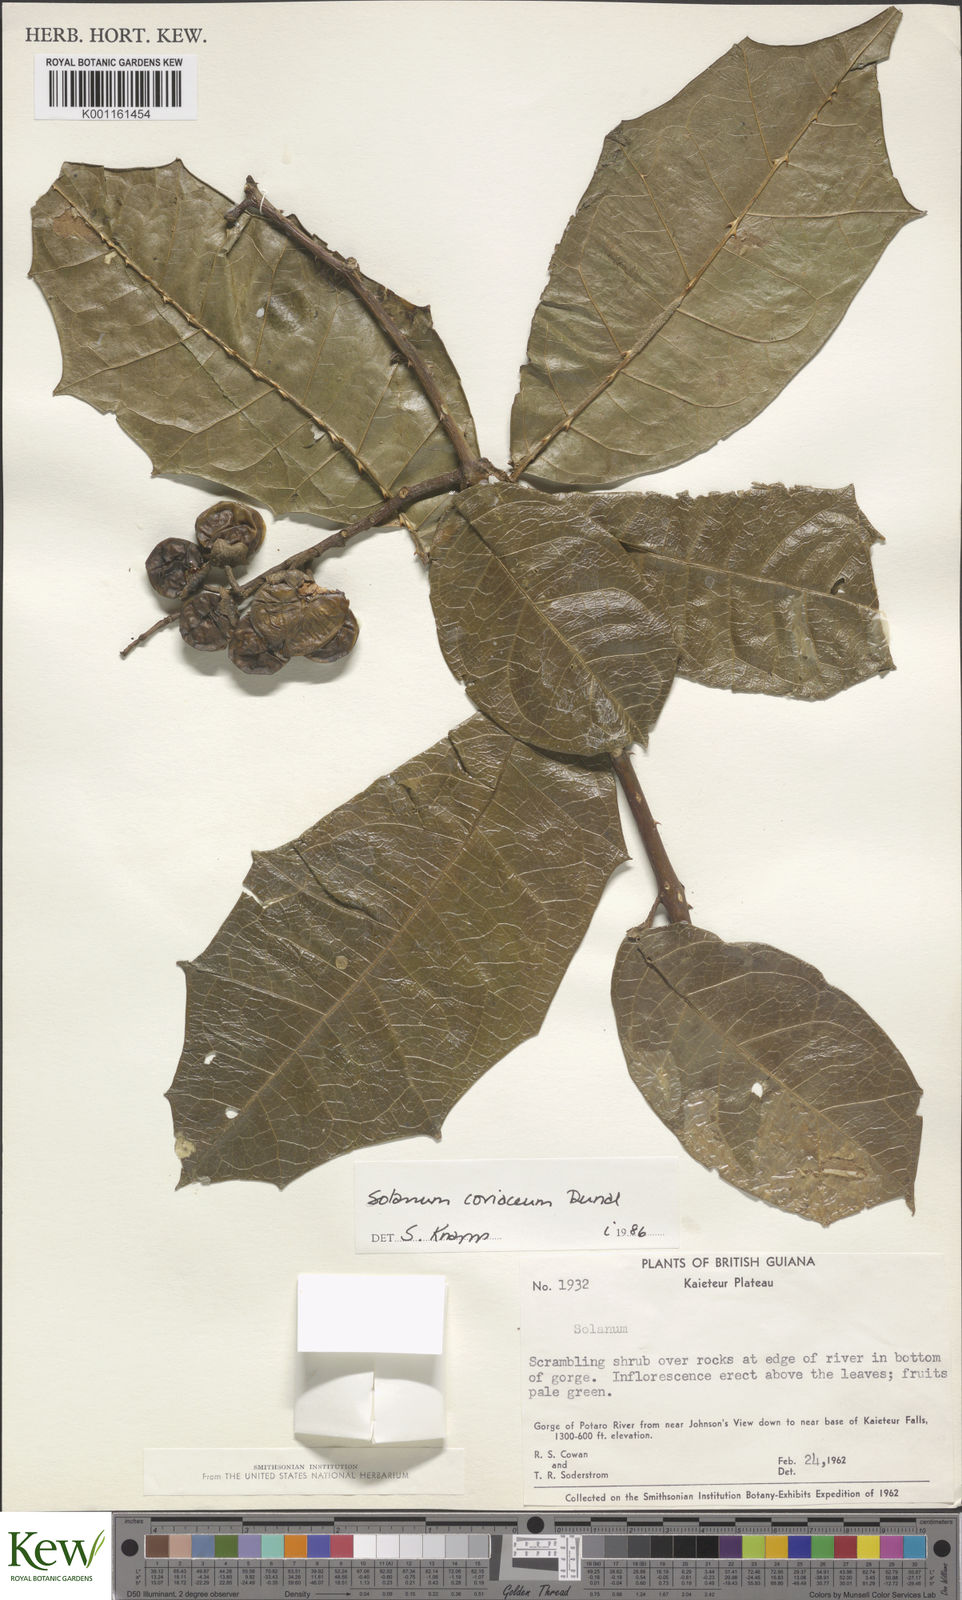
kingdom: Plantae
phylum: Tracheophyta
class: Magnoliopsida
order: Solanales
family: Solanaceae
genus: Solanum
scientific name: Solanum coriaceum
